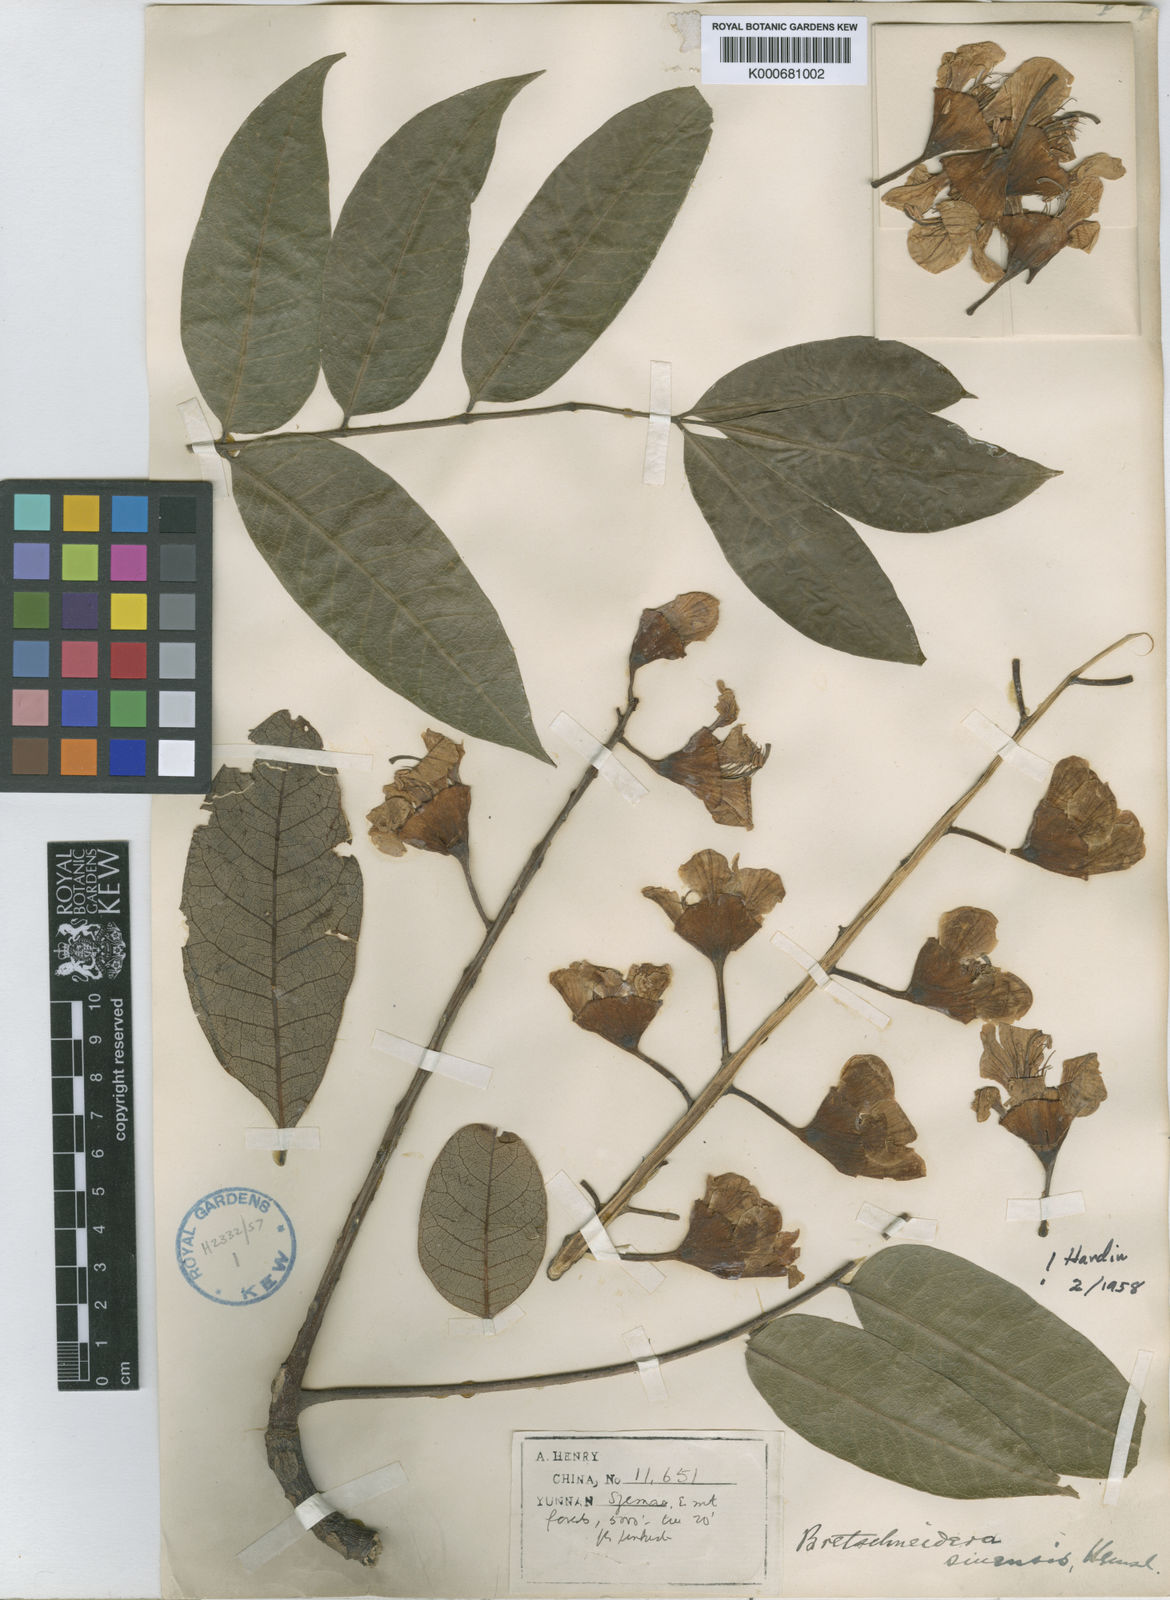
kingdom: Plantae
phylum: Tracheophyta
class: Magnoliopsida
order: Brassicales
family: Akaniaceae
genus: Bretschneidera
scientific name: Bretschneidera sinensis
